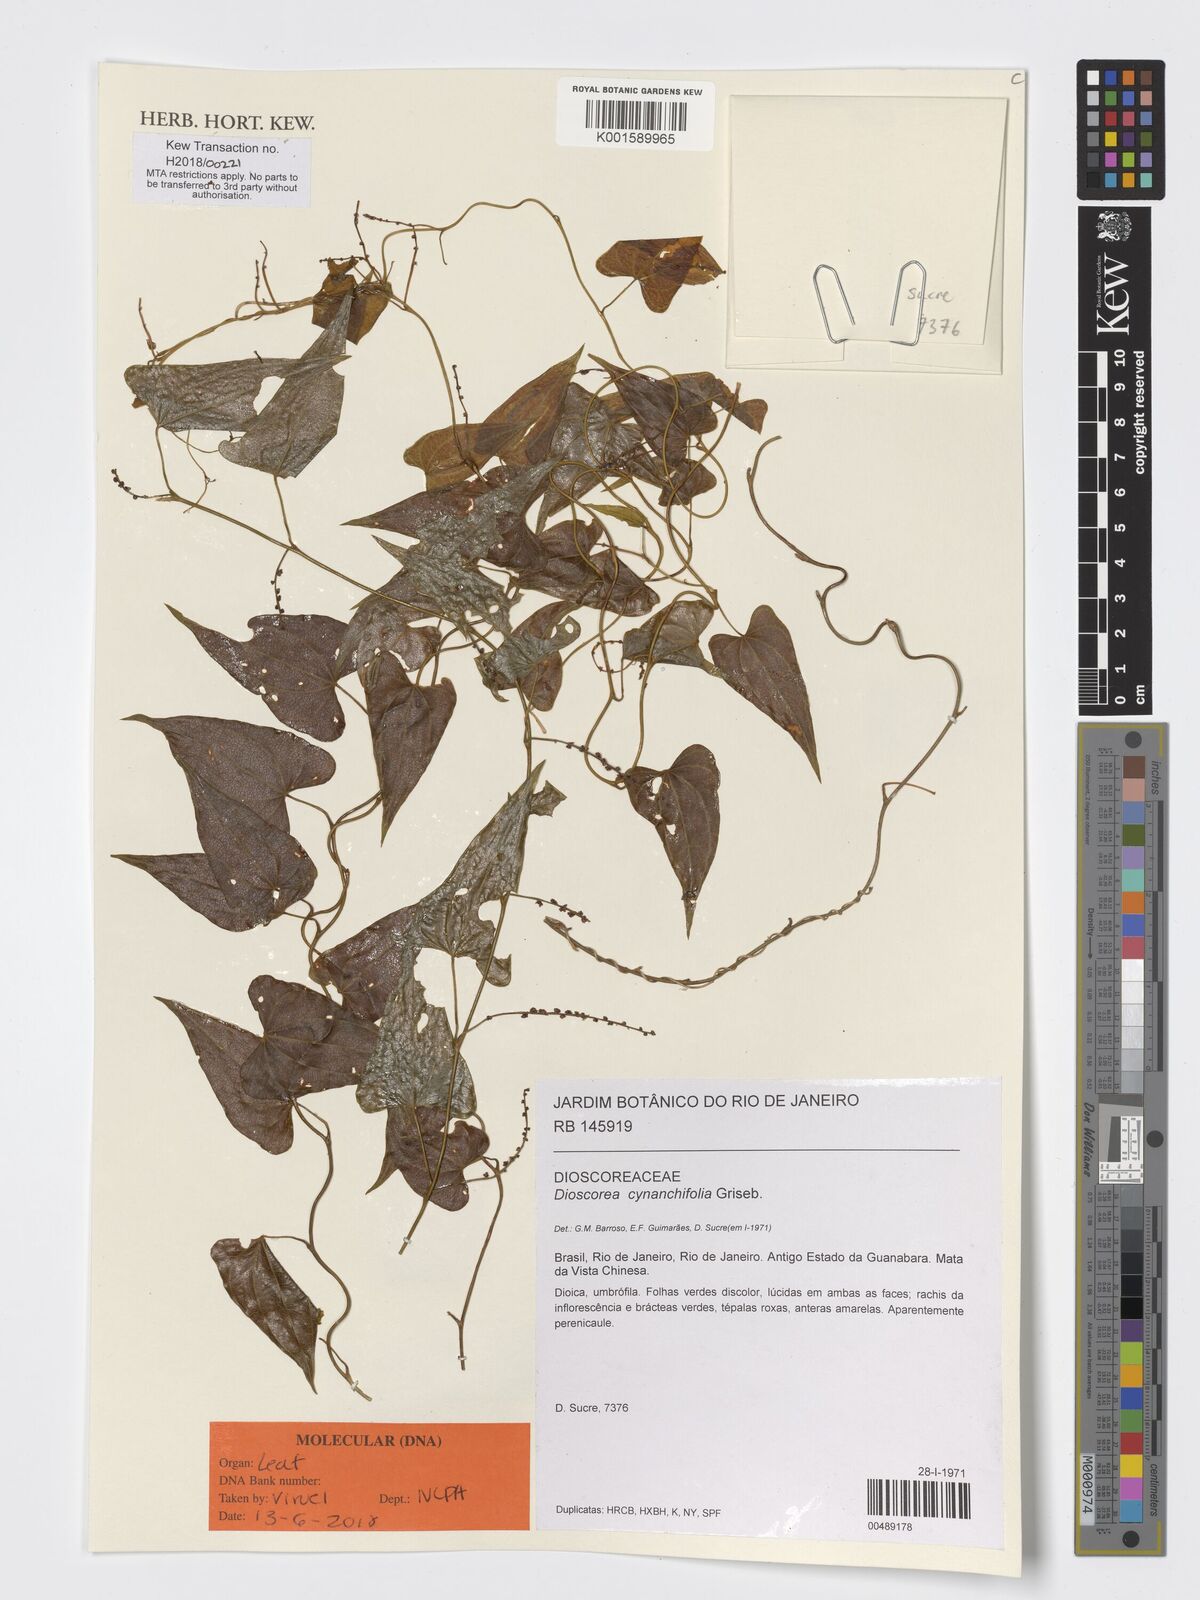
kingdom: Plantae
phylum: Tracheophyta
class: Liliopsida
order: Dioscoreales
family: Dioscoreaceae
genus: Dioscorea
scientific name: Dioscorea marginata
